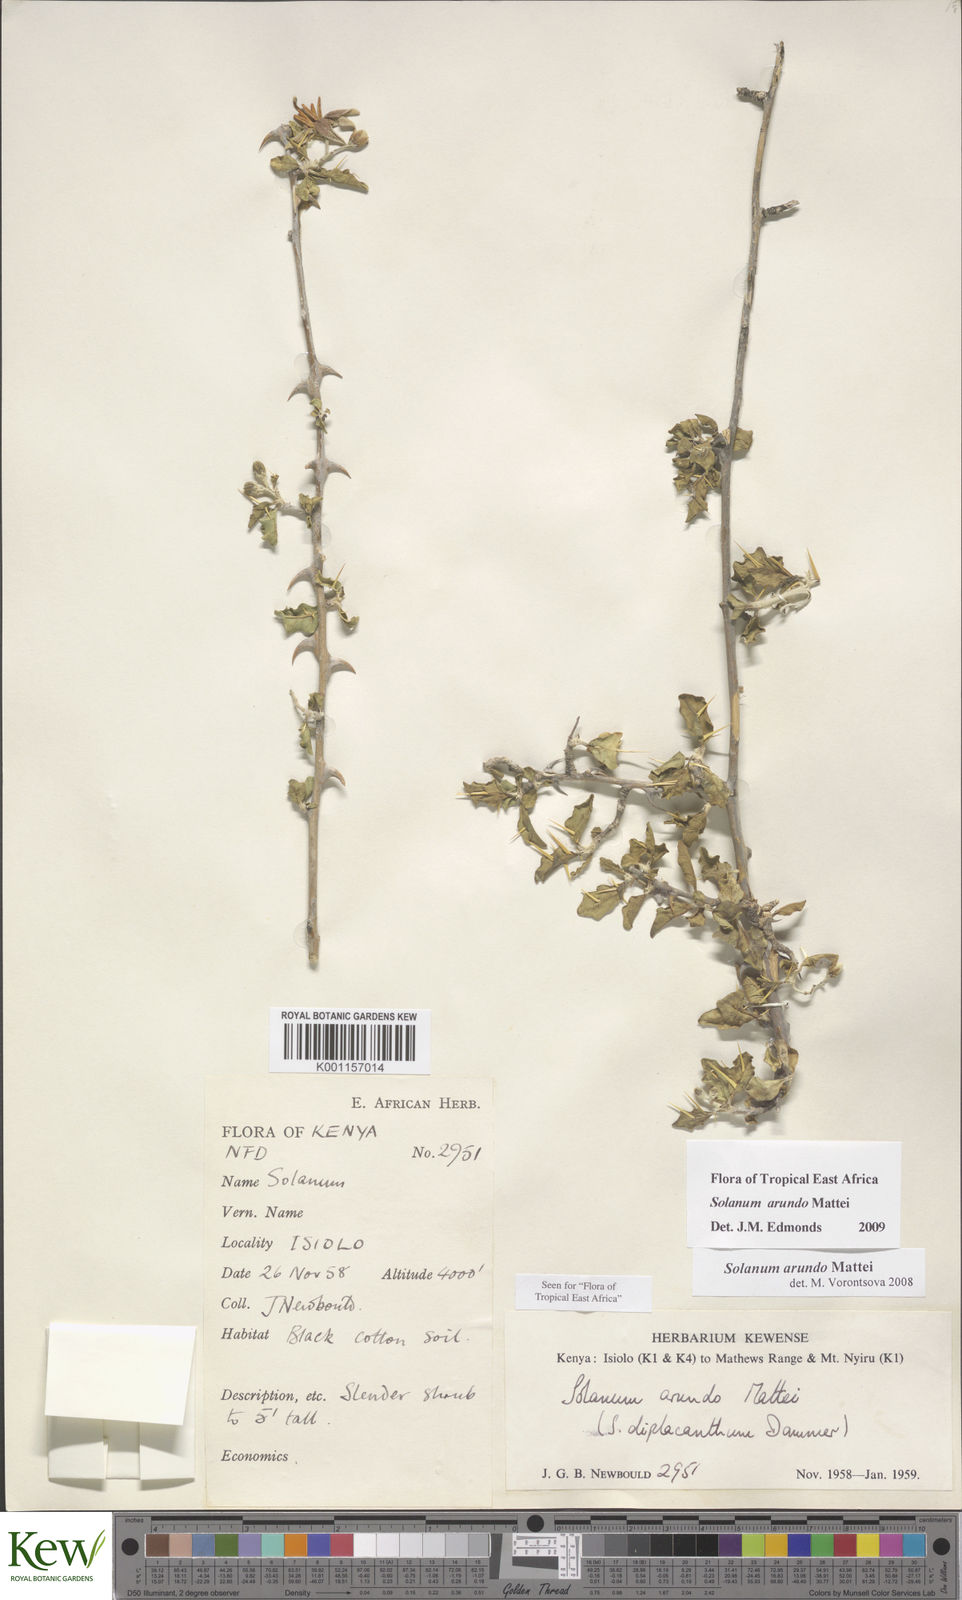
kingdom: Plantae
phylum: Tracheophyta
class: Magnoliopsida
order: Solanales
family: Solanaceae
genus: Solanum
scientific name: Solanum arundo
